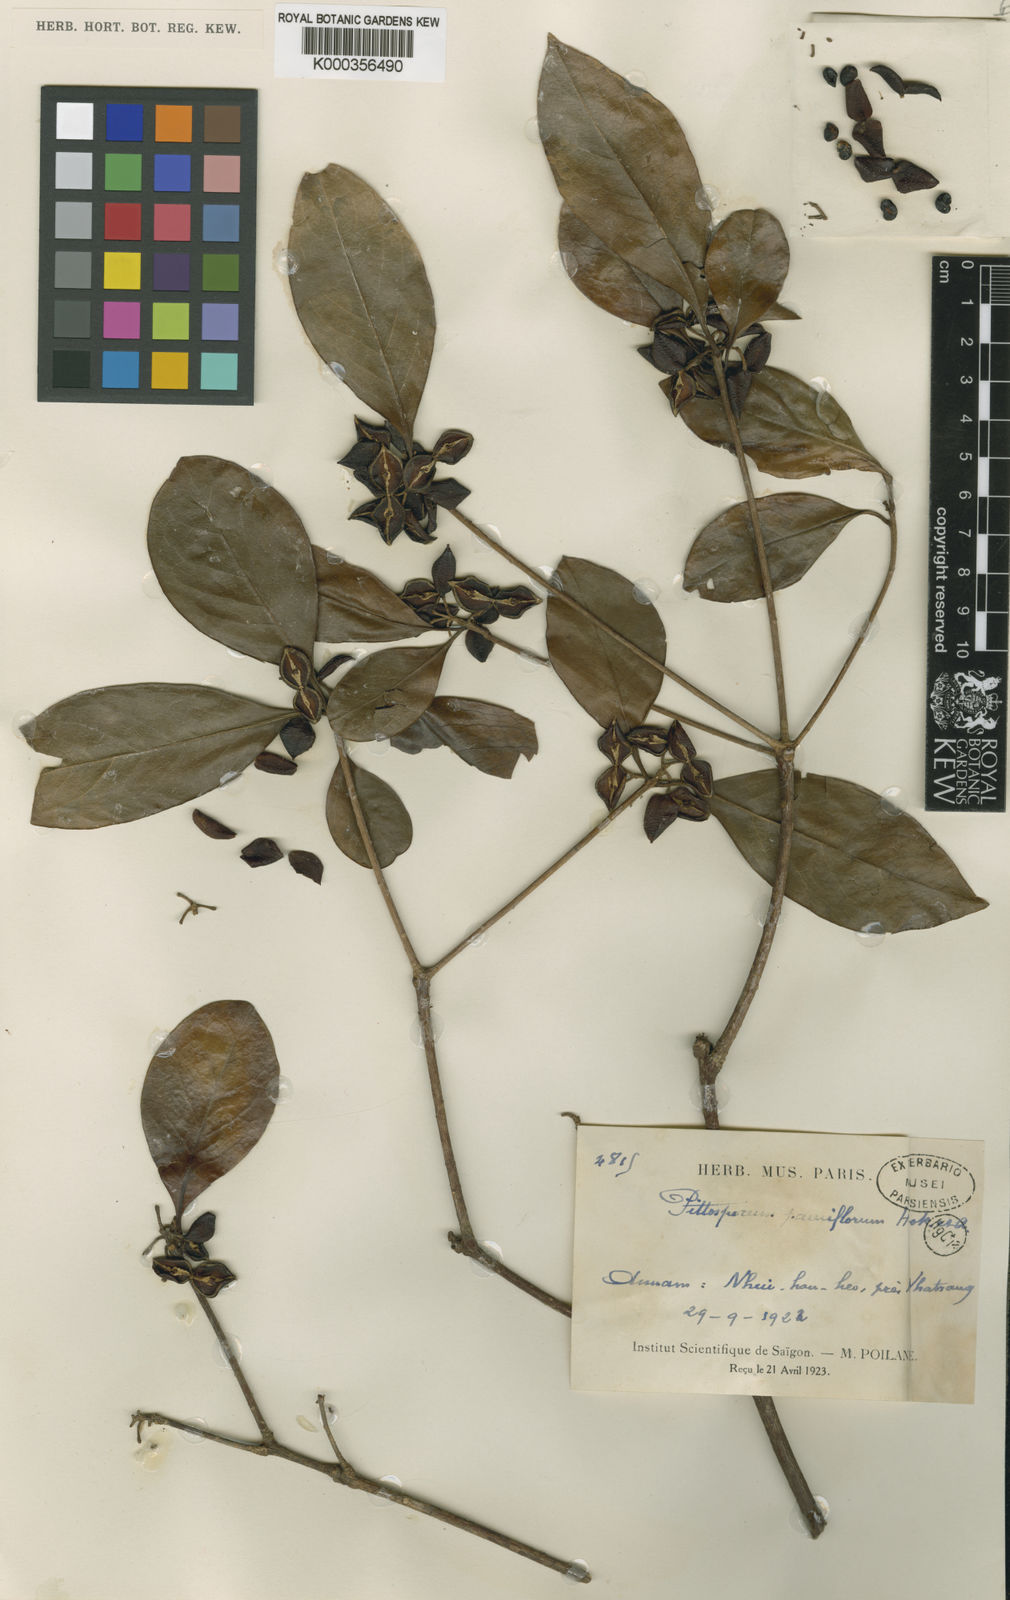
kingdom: Plantae
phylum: Tracheophyta
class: Magnoliopsida
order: Apiales
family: Pittosporaceae
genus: Pittosporum
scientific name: Pittosporum merrillianum
